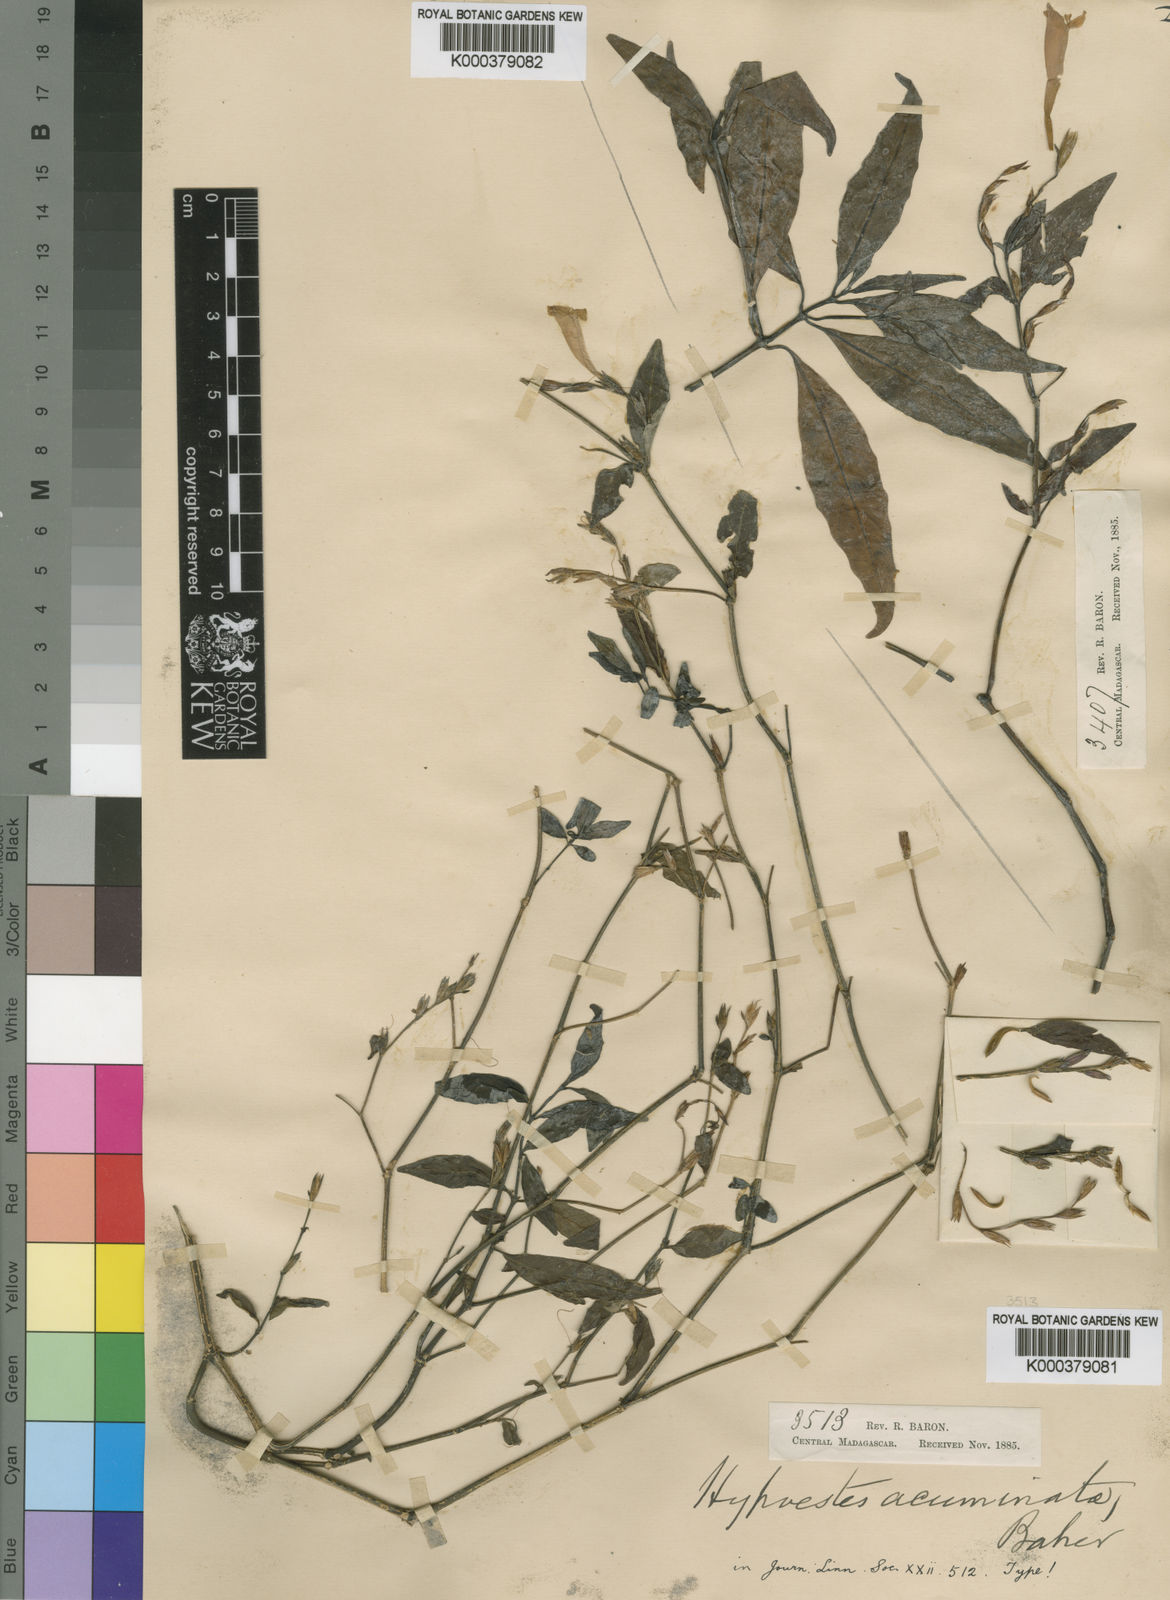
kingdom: Plantae
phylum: Tracheophyta
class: Magnoliopsida
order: Lamiales
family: Acanthaceae
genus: Hypoestes
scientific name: Hypoestes acuminata
